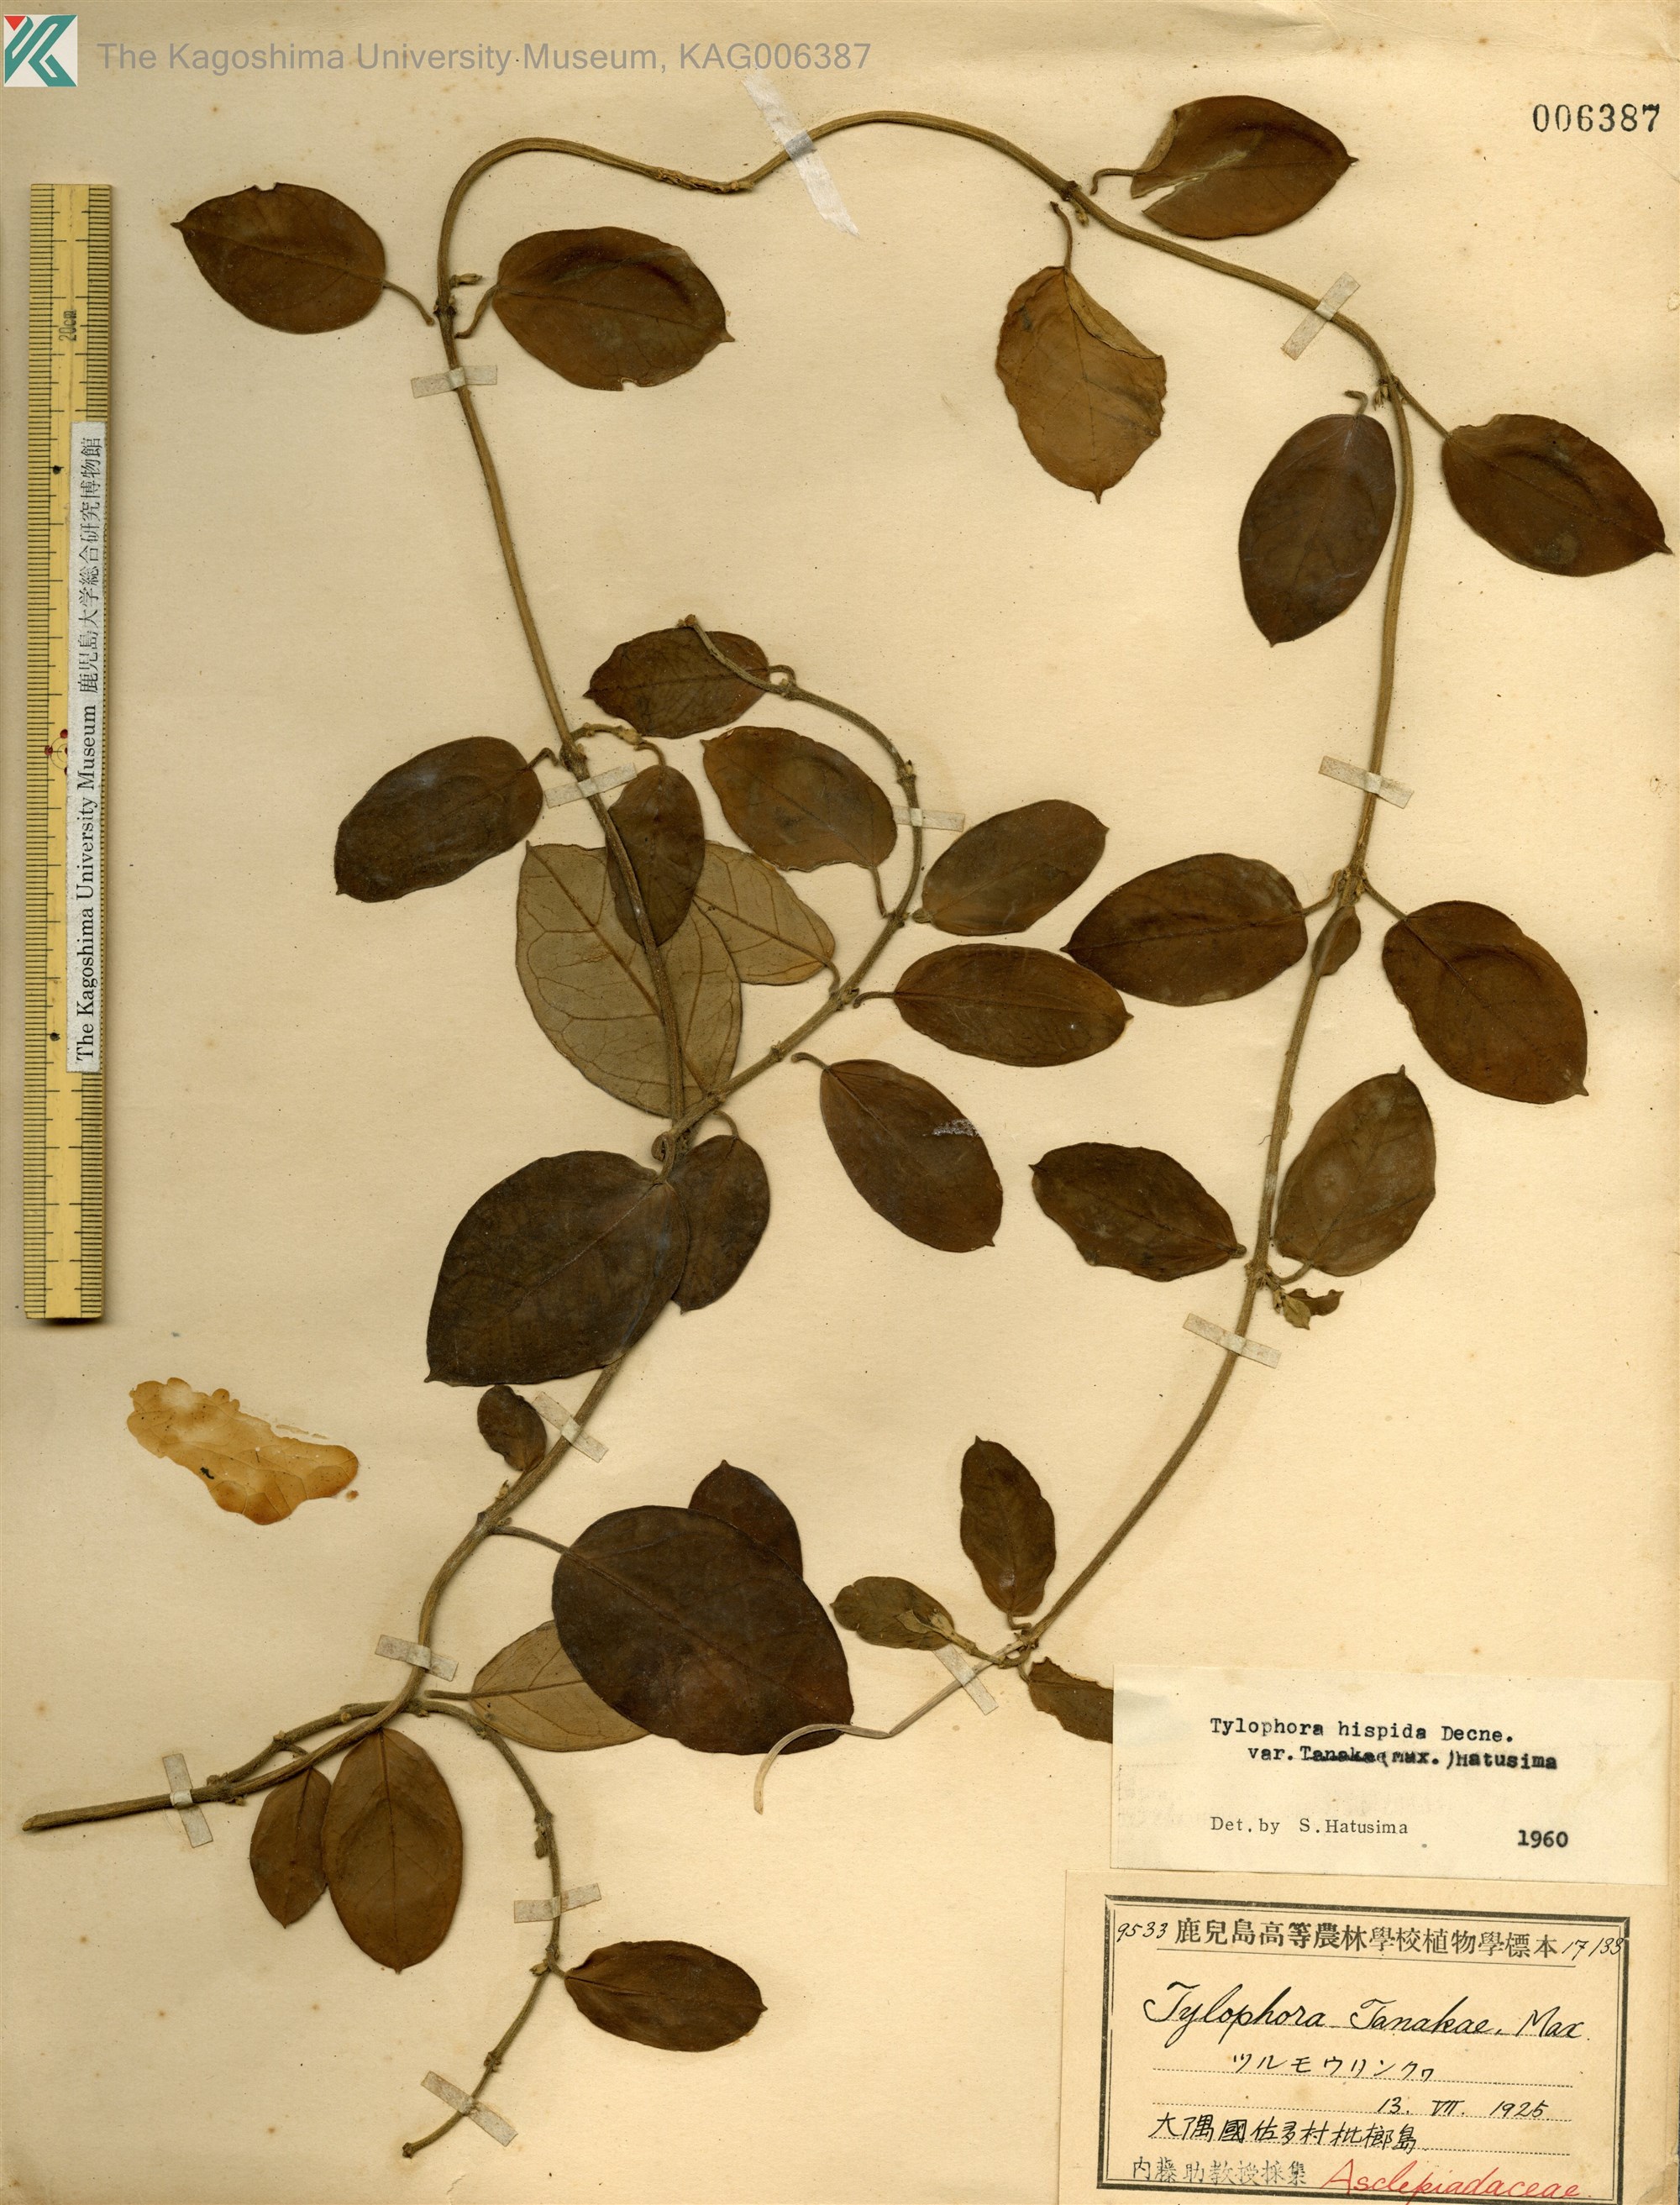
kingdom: Plantae
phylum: Tracheophyta
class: Magnoliopsida
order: Gentianales
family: Apocynaceae
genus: Vincetoxicum
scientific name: Vincetoxicum Tylophora tanakae
